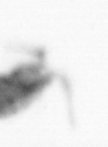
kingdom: Animalia
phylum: Arthropoda
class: Copepoda
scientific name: Copepoda
